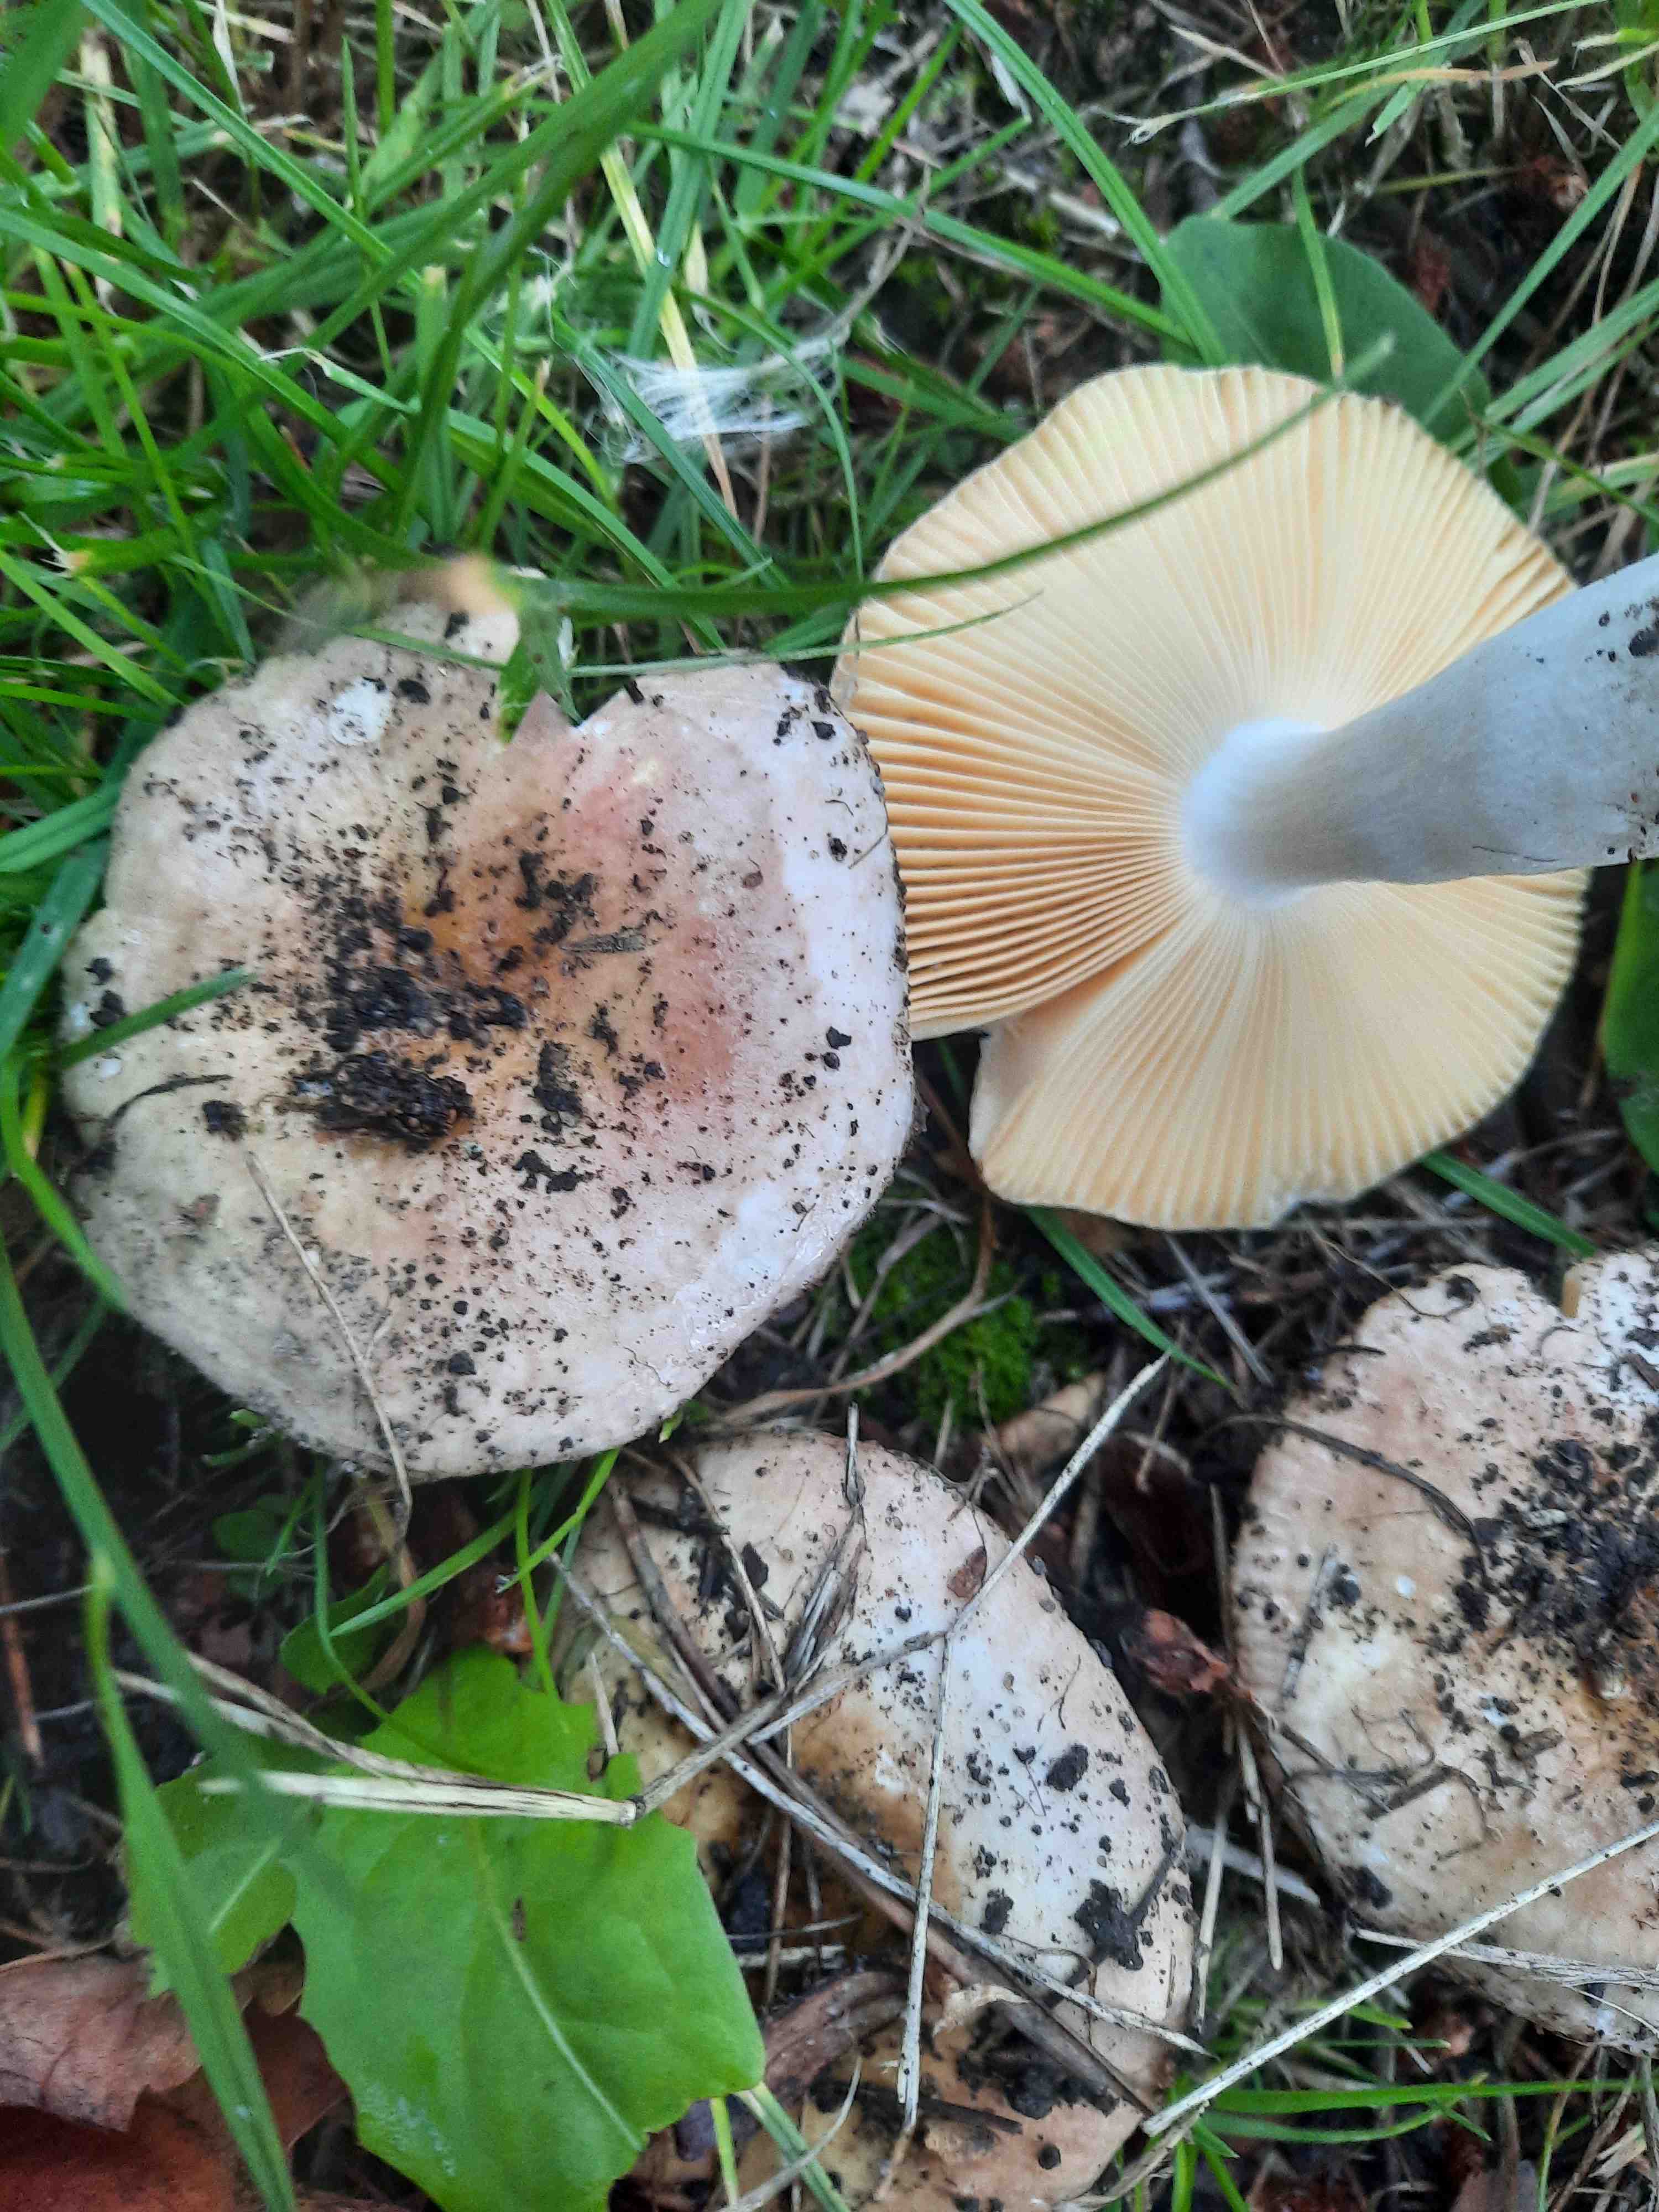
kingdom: Fungi
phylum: Basidiomycota
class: Agaricomycetes
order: Russulales
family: Russulaceae
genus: Russula
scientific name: Russula
